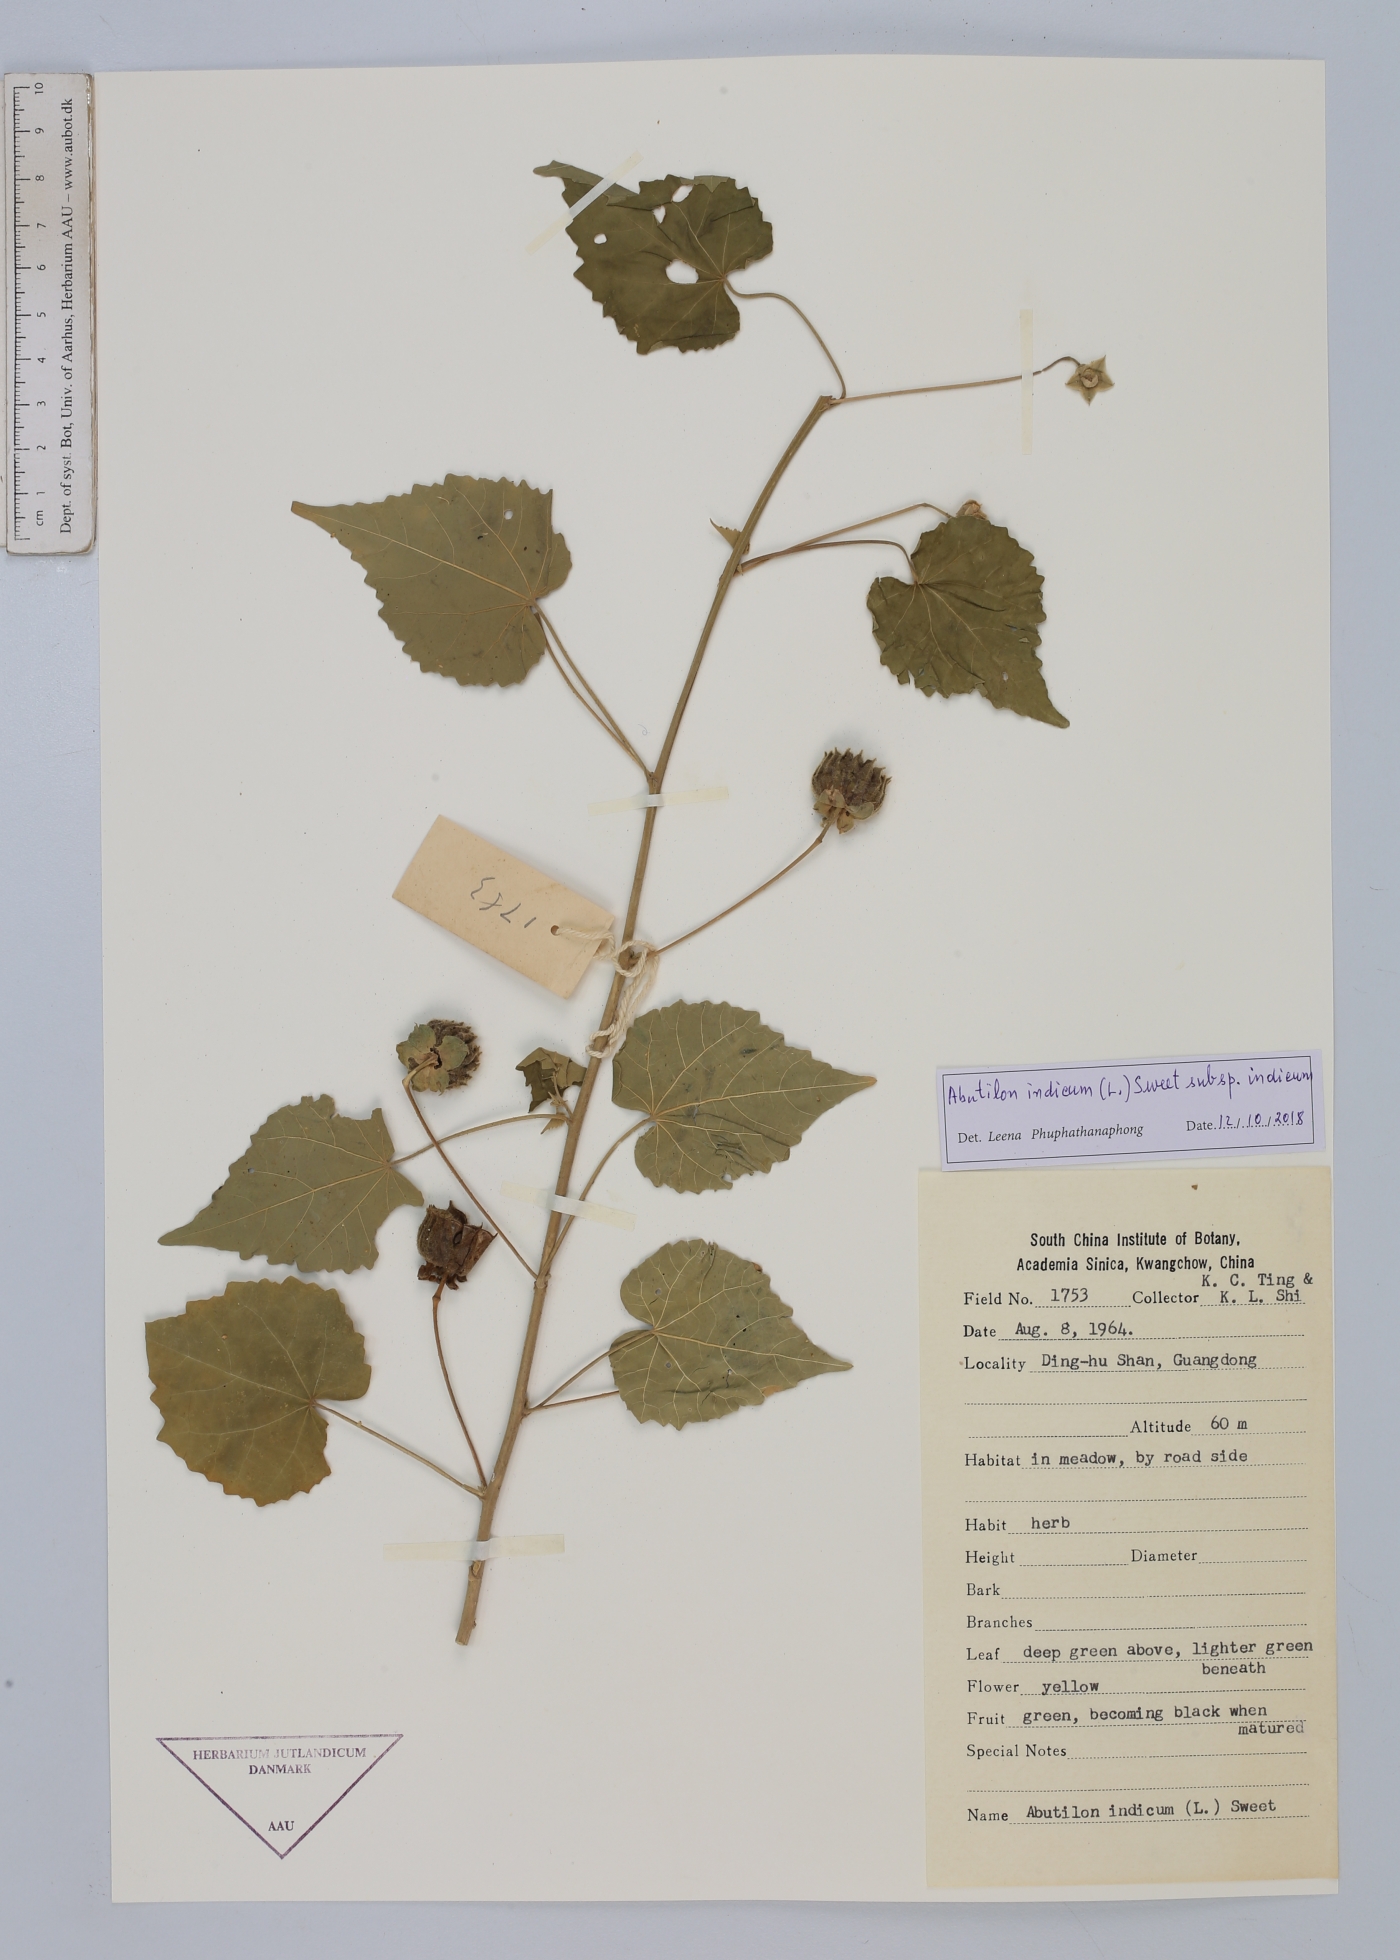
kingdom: Plantae
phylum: Tracheophyta
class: Magnoliopsida
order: Malvales
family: Malvaceae
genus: Abutilon
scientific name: Abutilon indicum
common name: Indian abutilon
